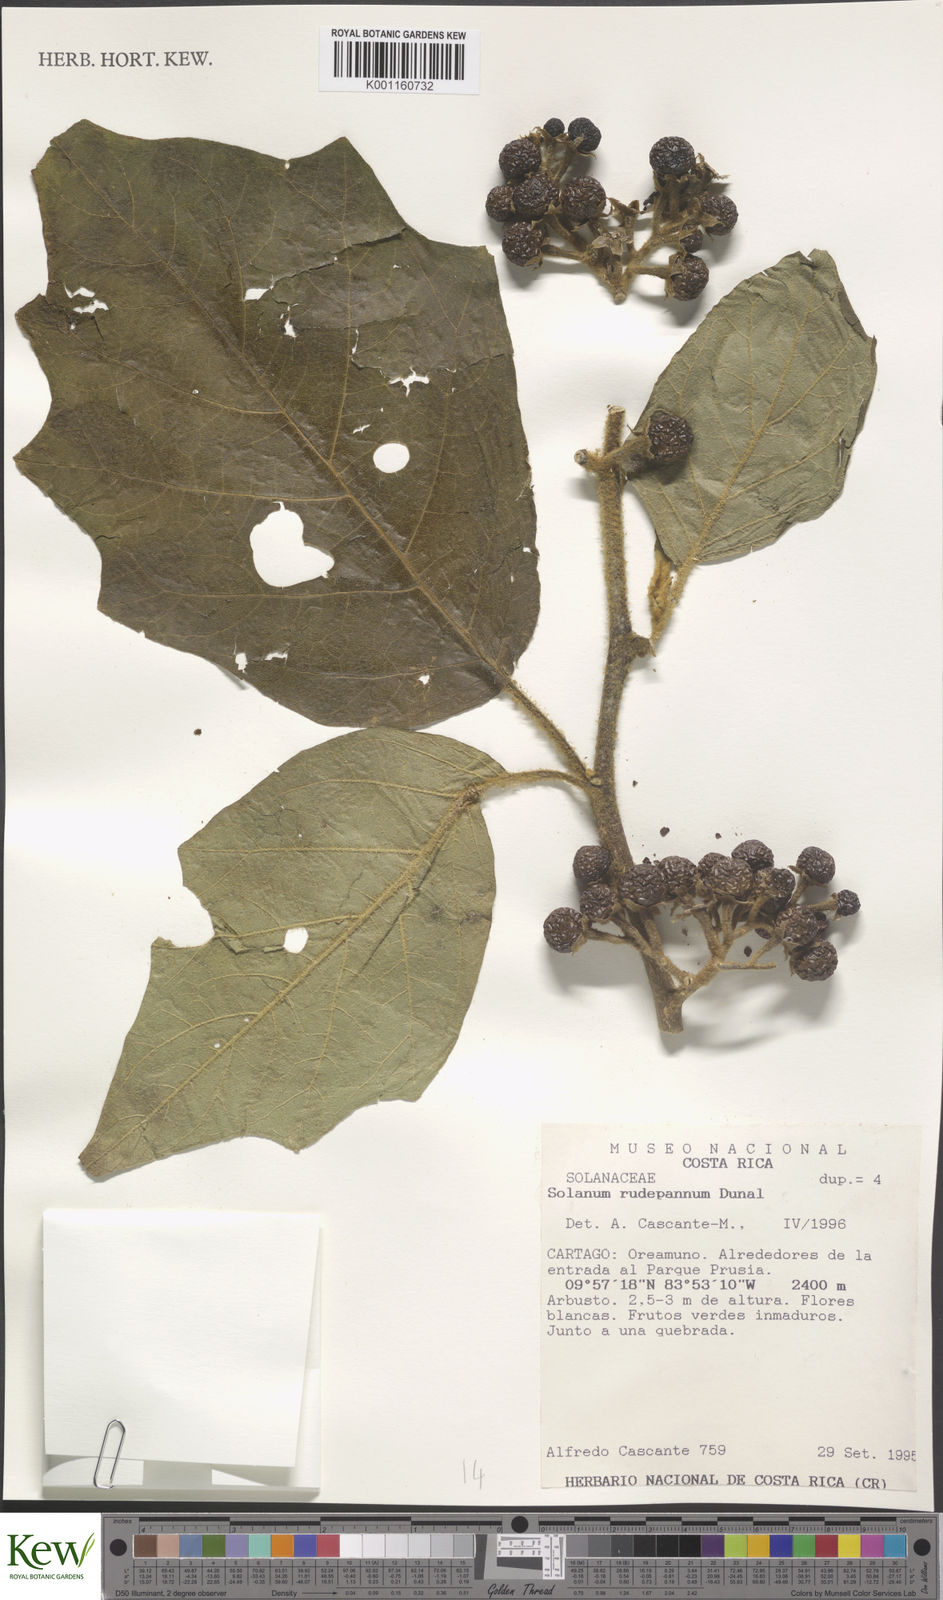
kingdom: Plantae
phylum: Tracheophyta
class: Magnoliopsida
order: Solanales
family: Solanaceae
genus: Solanum
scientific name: Solanum rude-pannum
